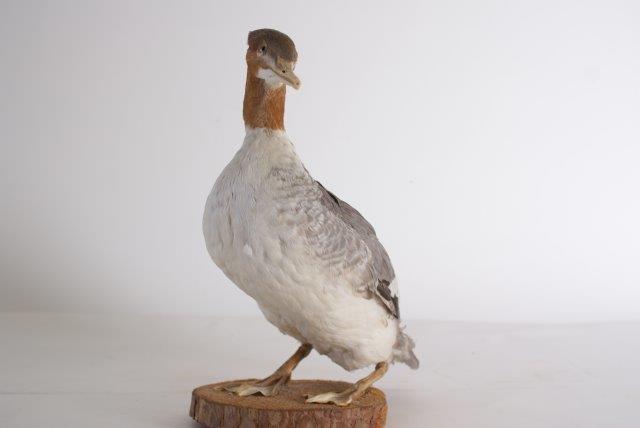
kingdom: Animalia
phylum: Chordata
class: Aves
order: Anseriformes
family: Anatidae
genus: Mergus
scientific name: Mergus merganser
